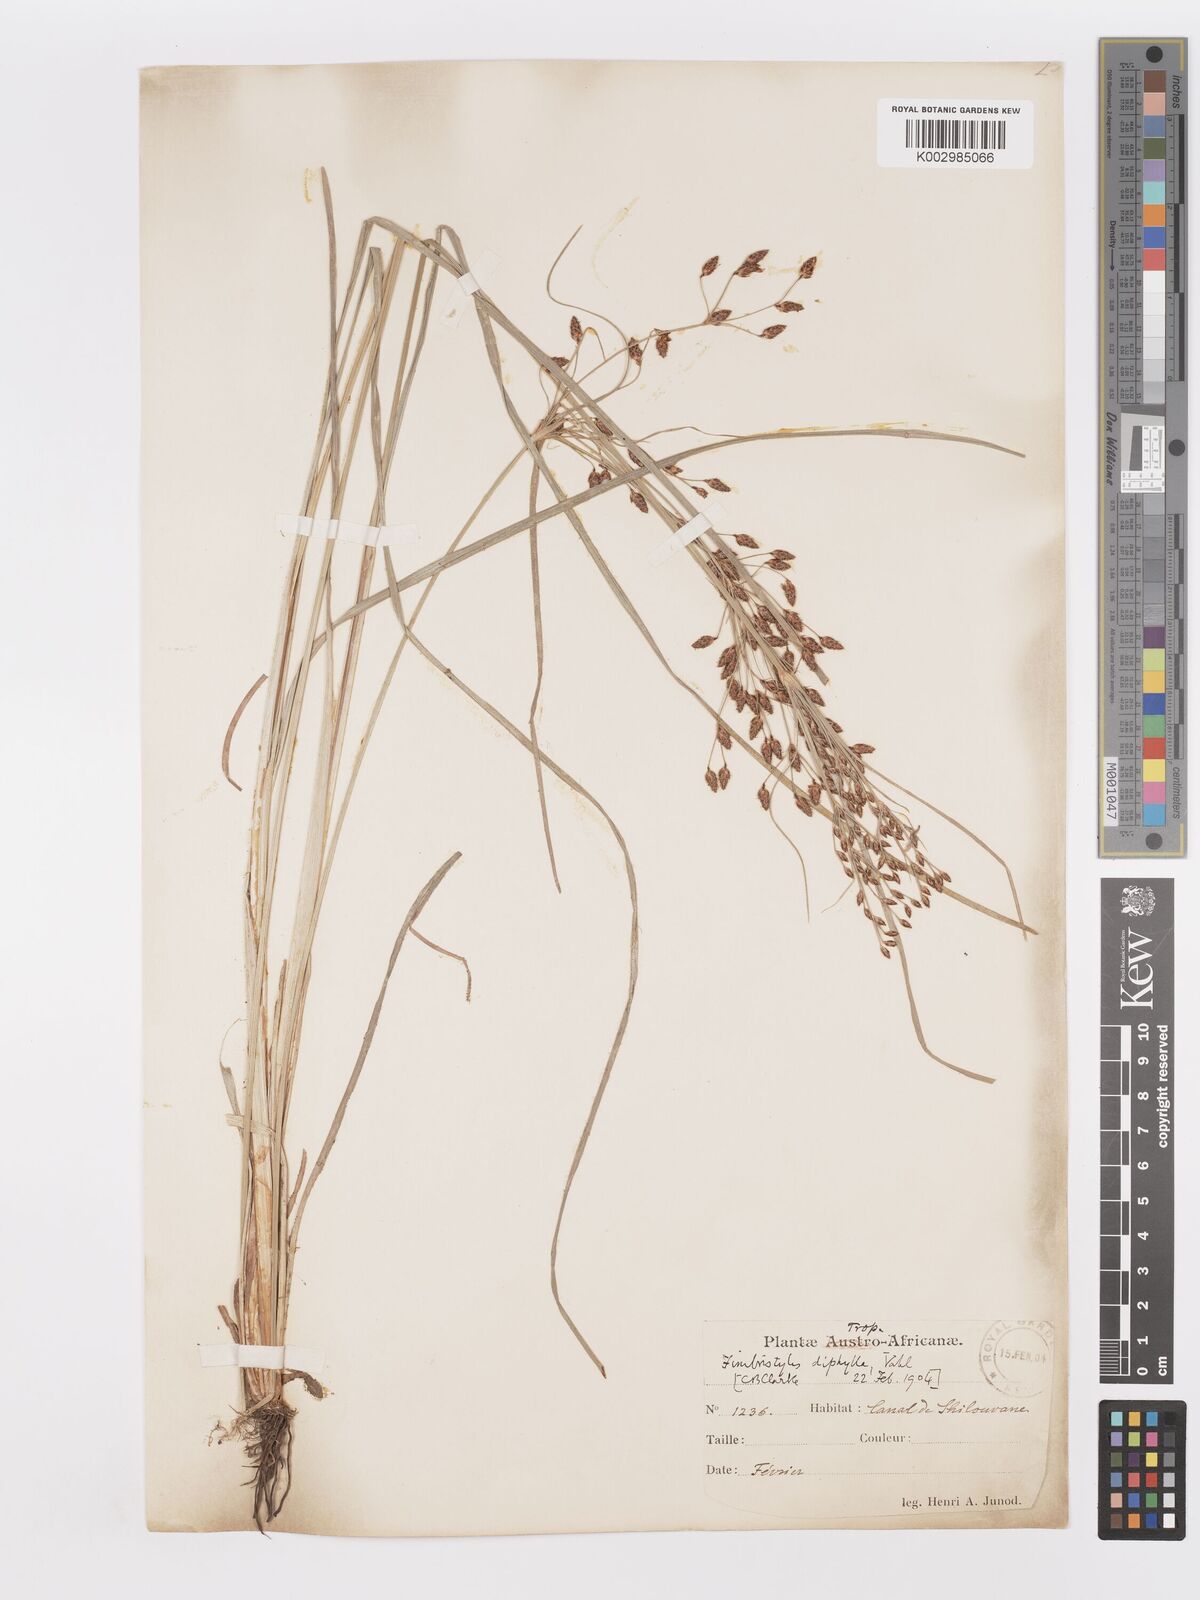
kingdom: Plantae
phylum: Tracheophyta
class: Liliopsida
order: Poales
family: Cyperaceae
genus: Fimbristylis
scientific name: Fimbristylis dichotoma
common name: Forked fimbry
